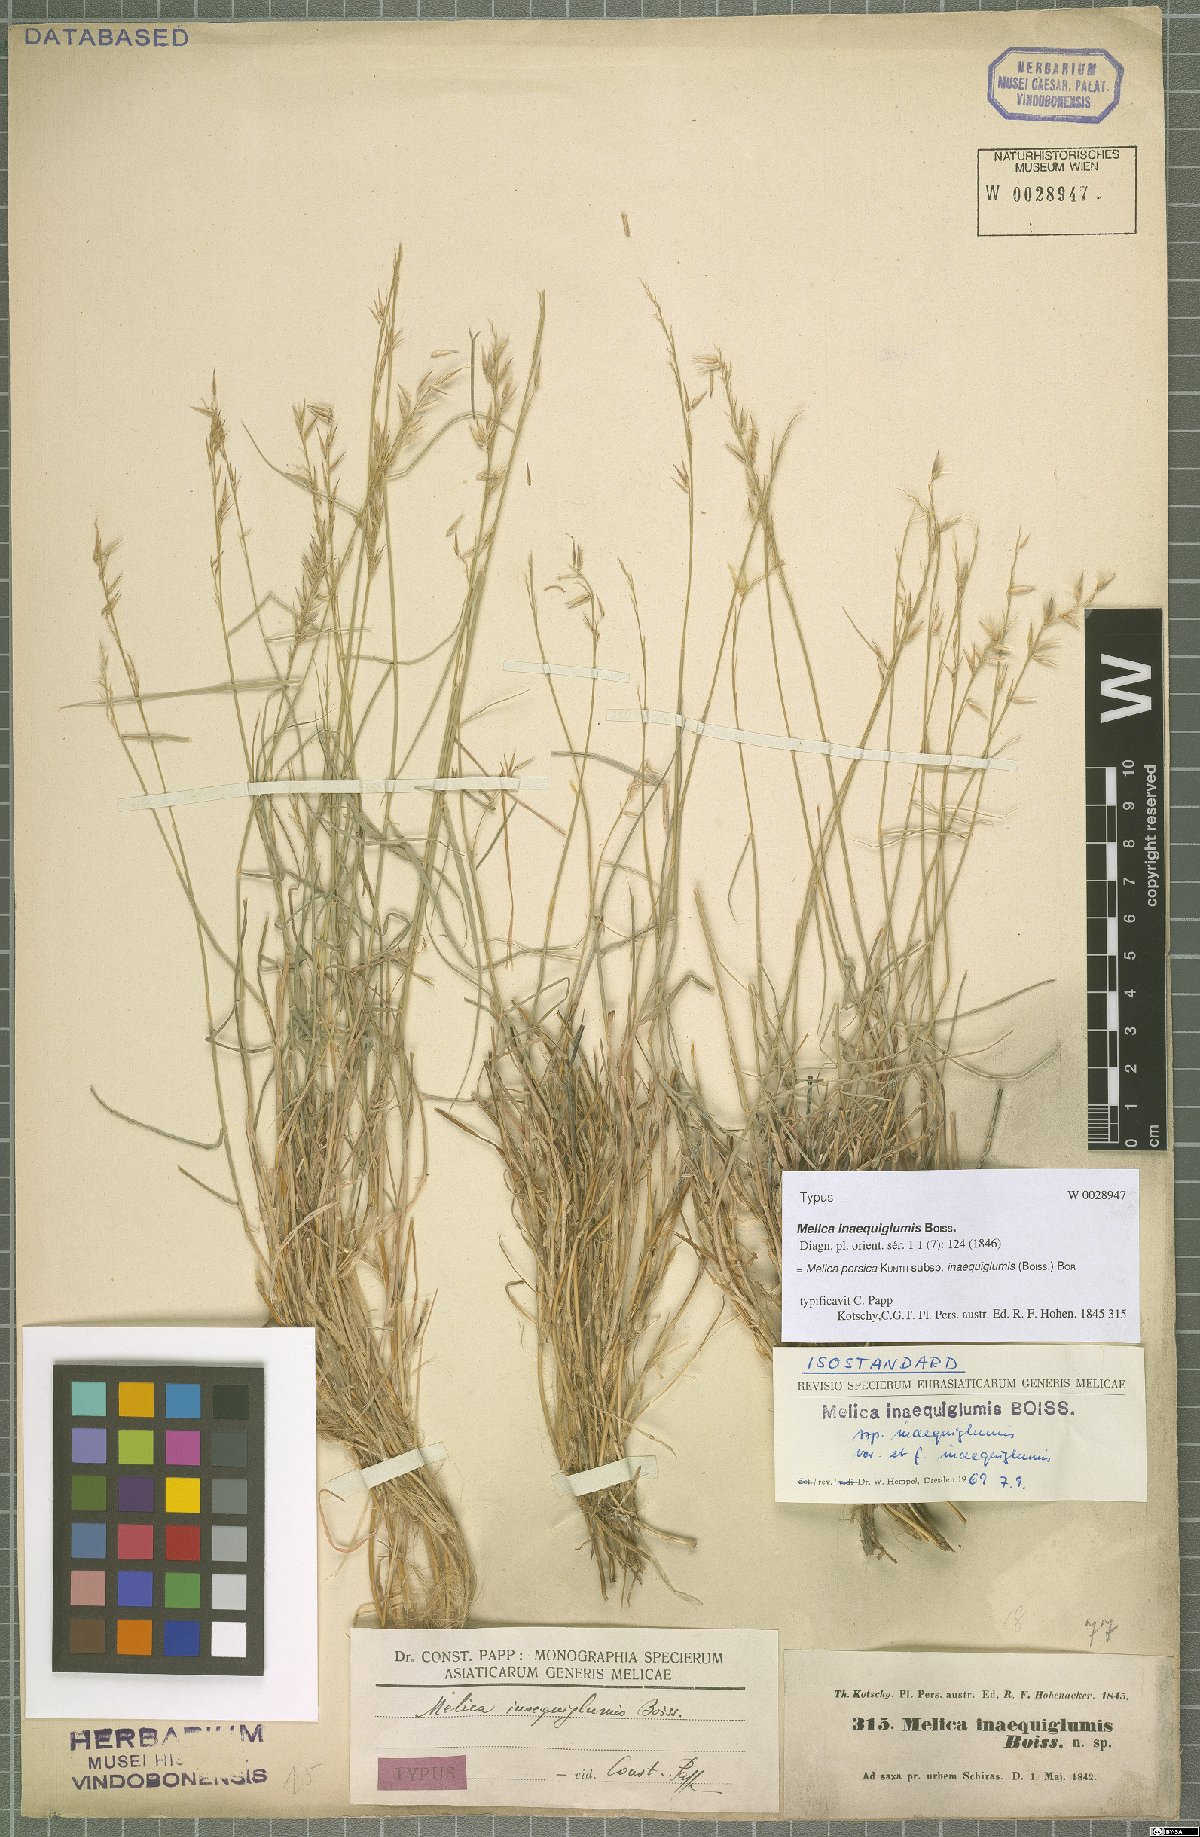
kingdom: Plantae
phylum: Tracheophyta
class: Liliopsida
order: Poales
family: Poaceae
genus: Melica
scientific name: Melica persica
